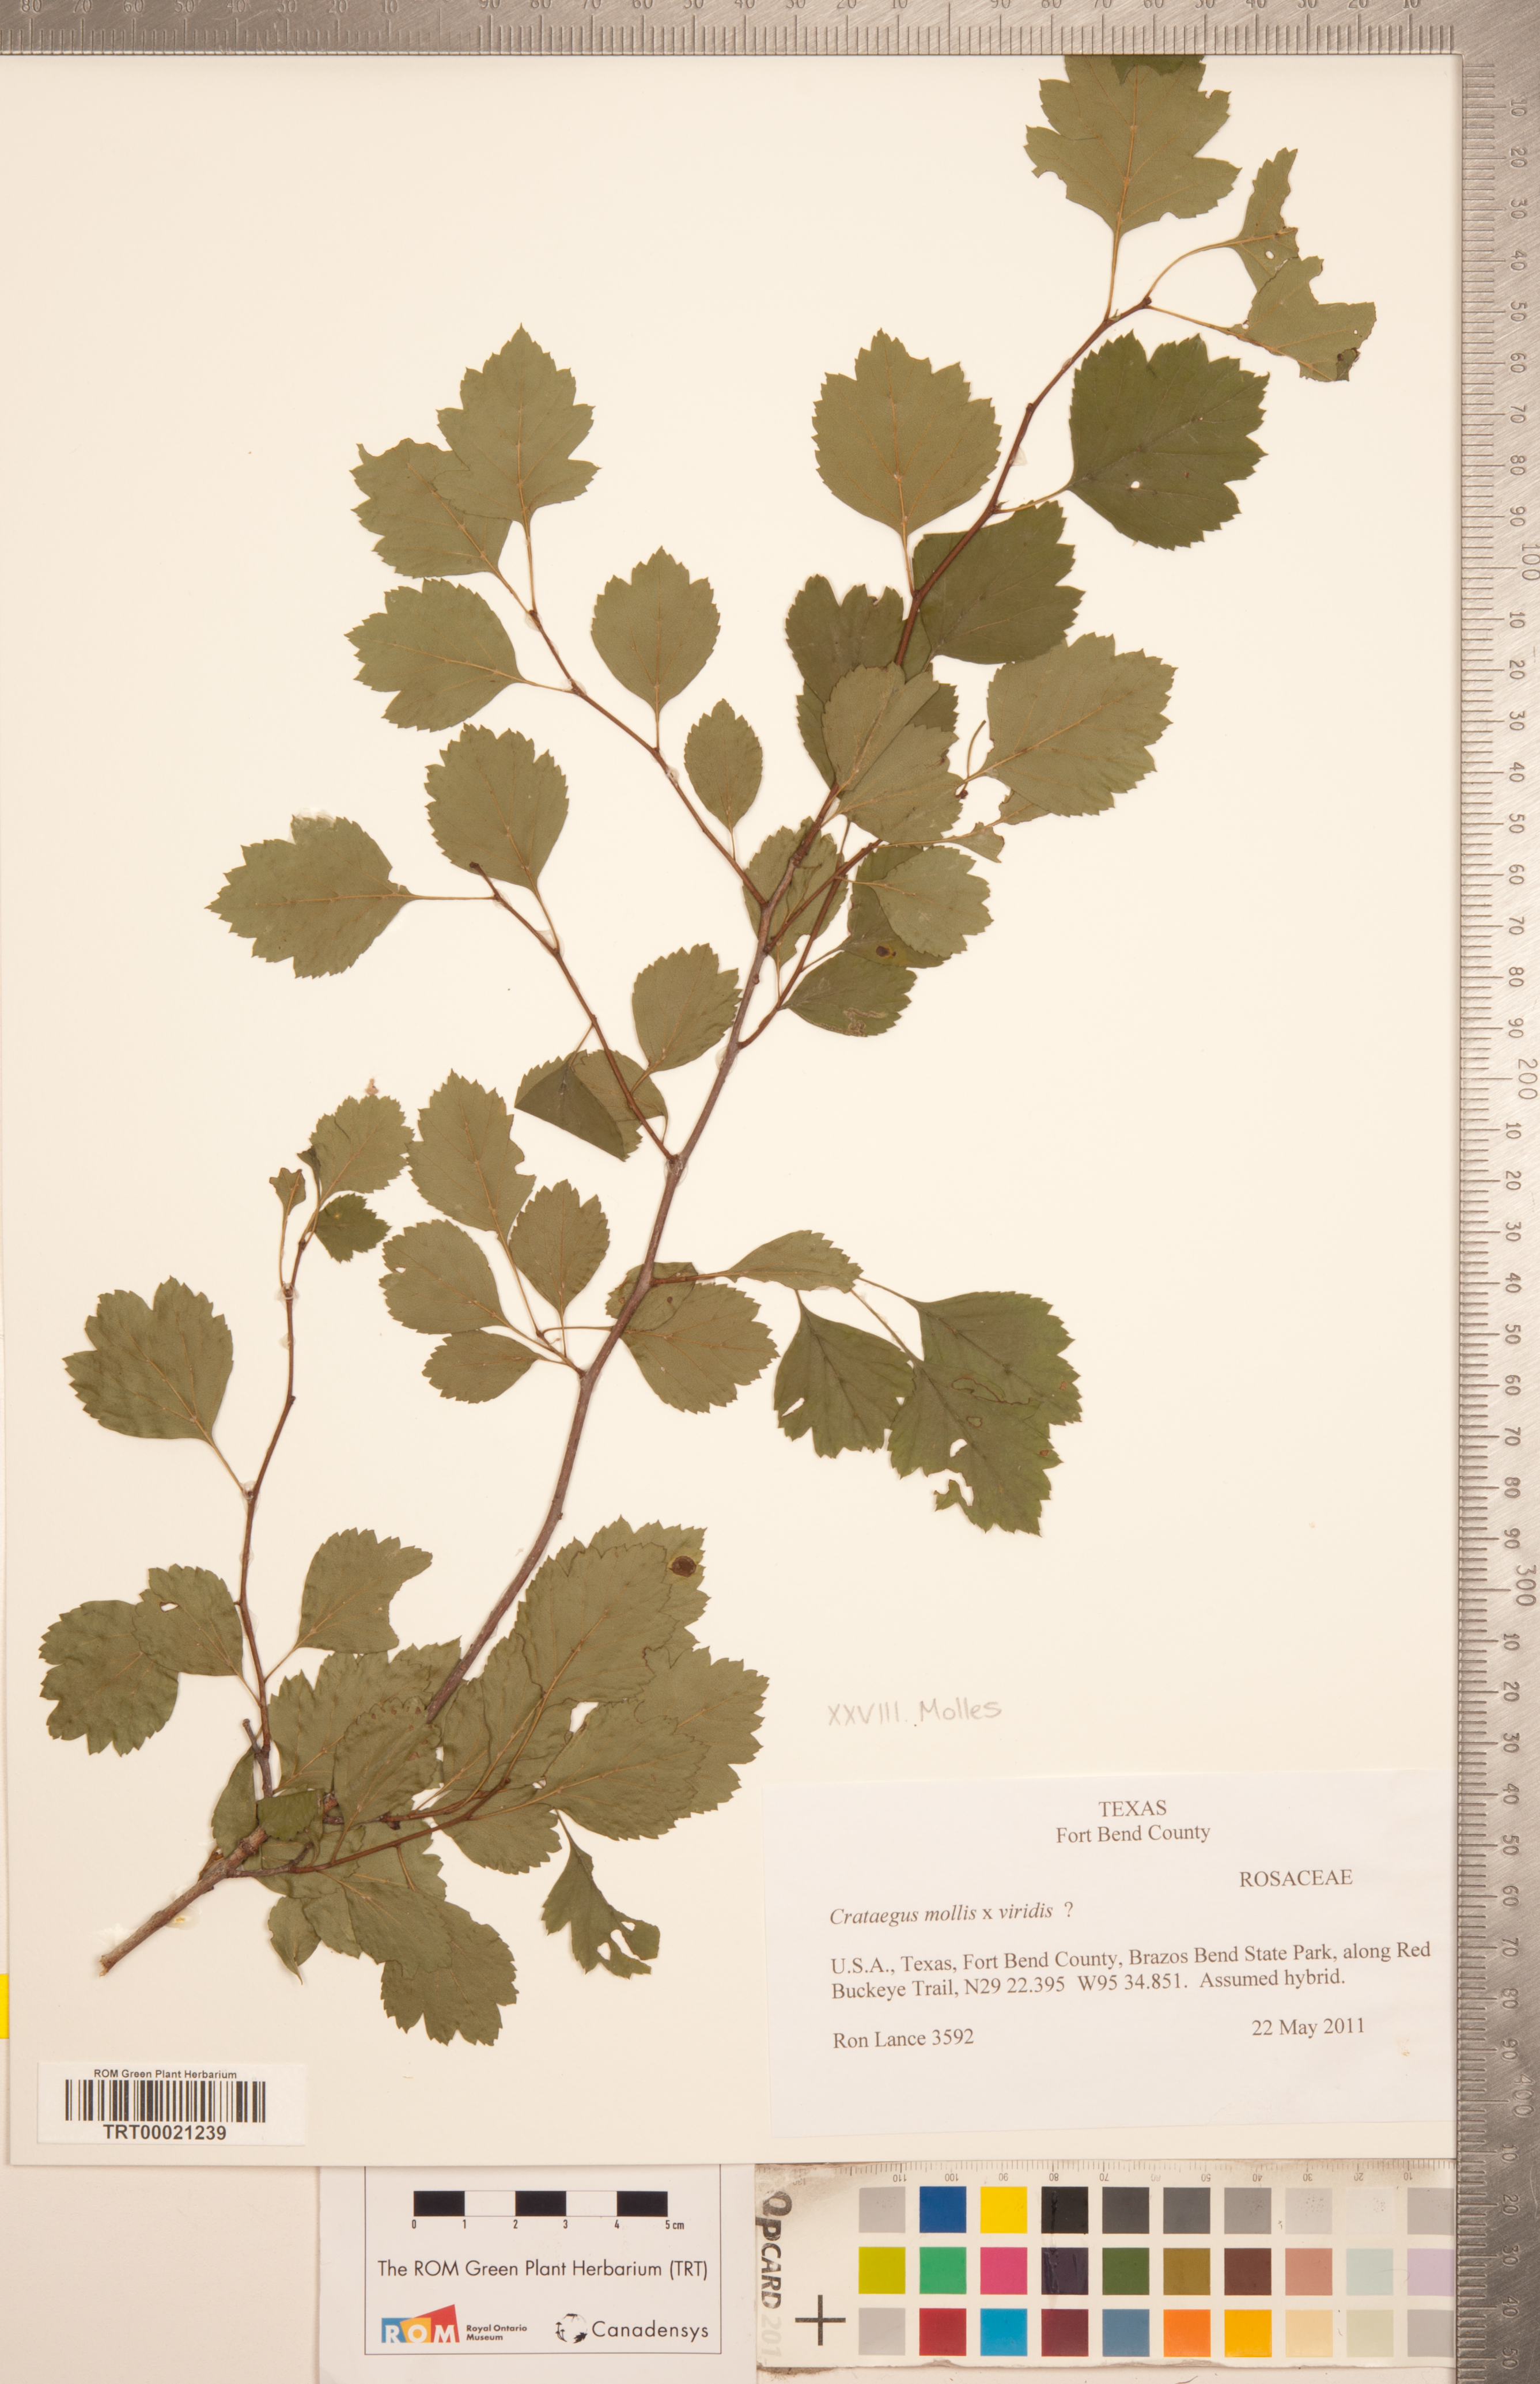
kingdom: Plantae
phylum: Tracheophyta
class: Magnoliopsida
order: Rosales
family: Rosaceae
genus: Crataegus
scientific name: Crataegus
